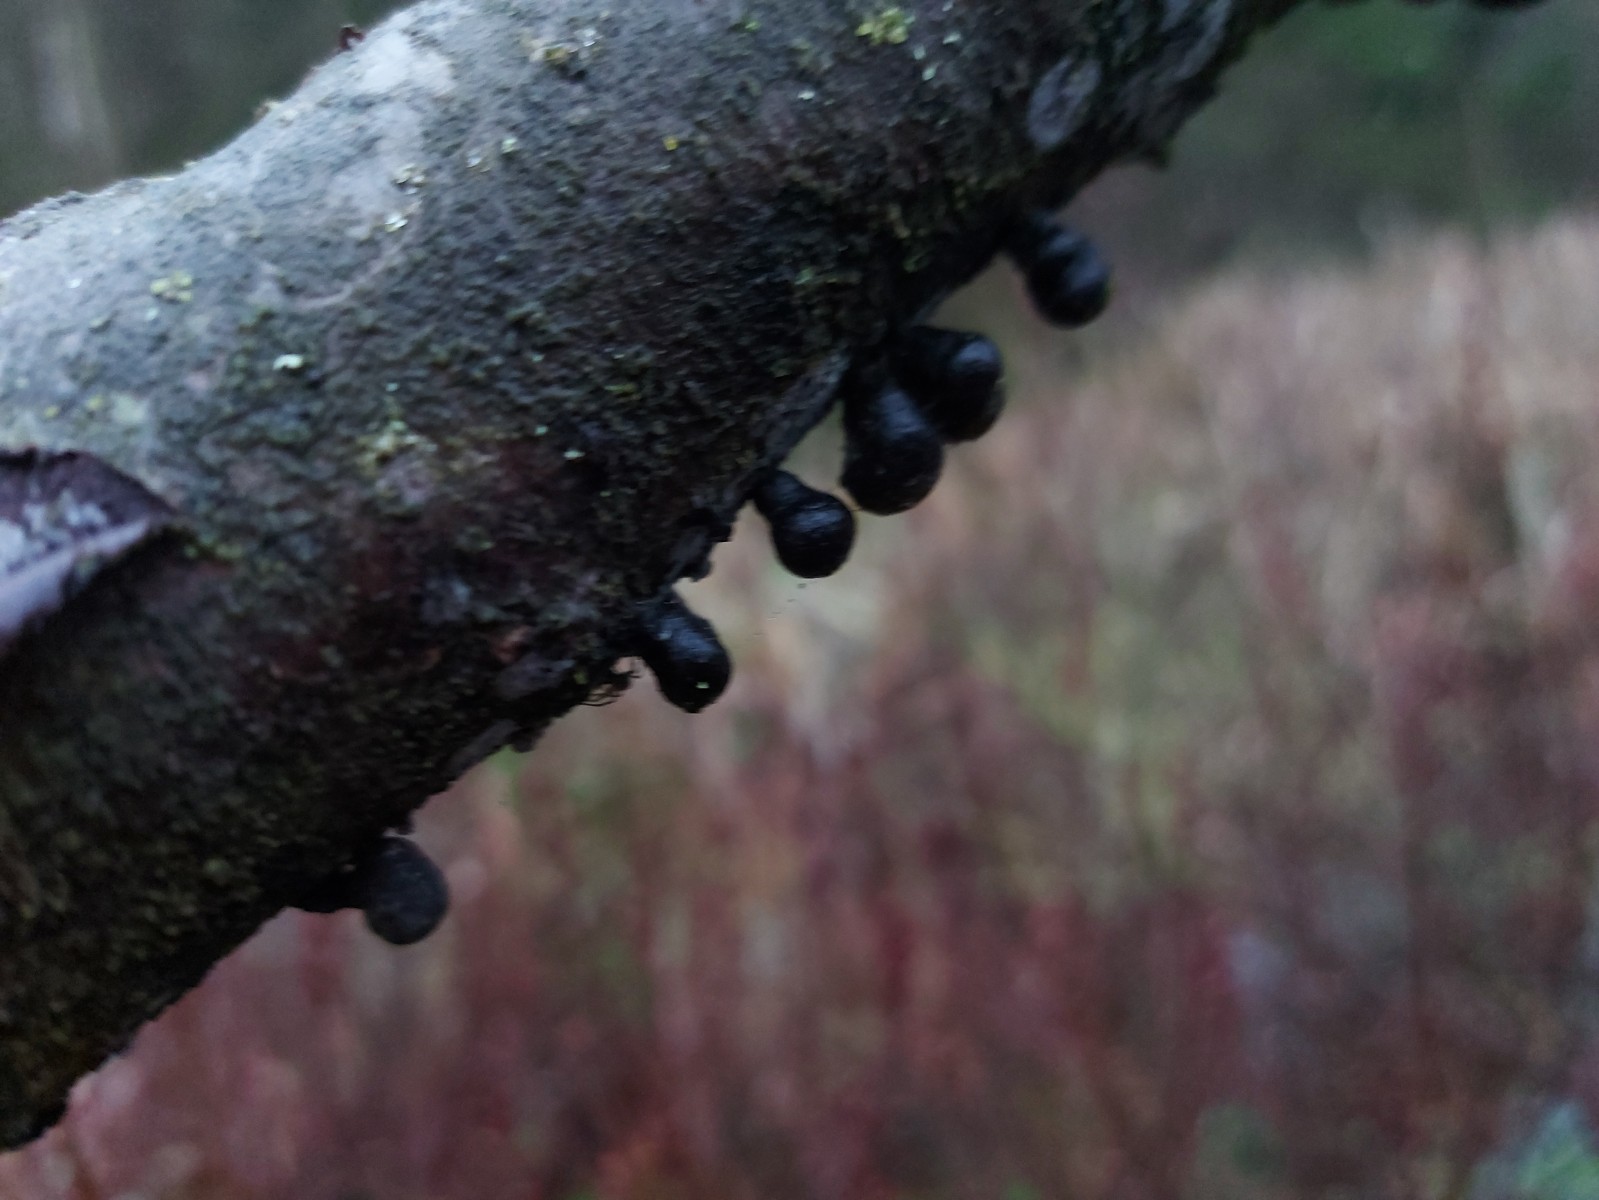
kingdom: Fungi
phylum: Ascomycota
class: Sordariomycetes
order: Xylariales
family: Hypoxylaceae
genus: Daldinia
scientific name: Daldinia decipiens
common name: stilket bæltekugle
